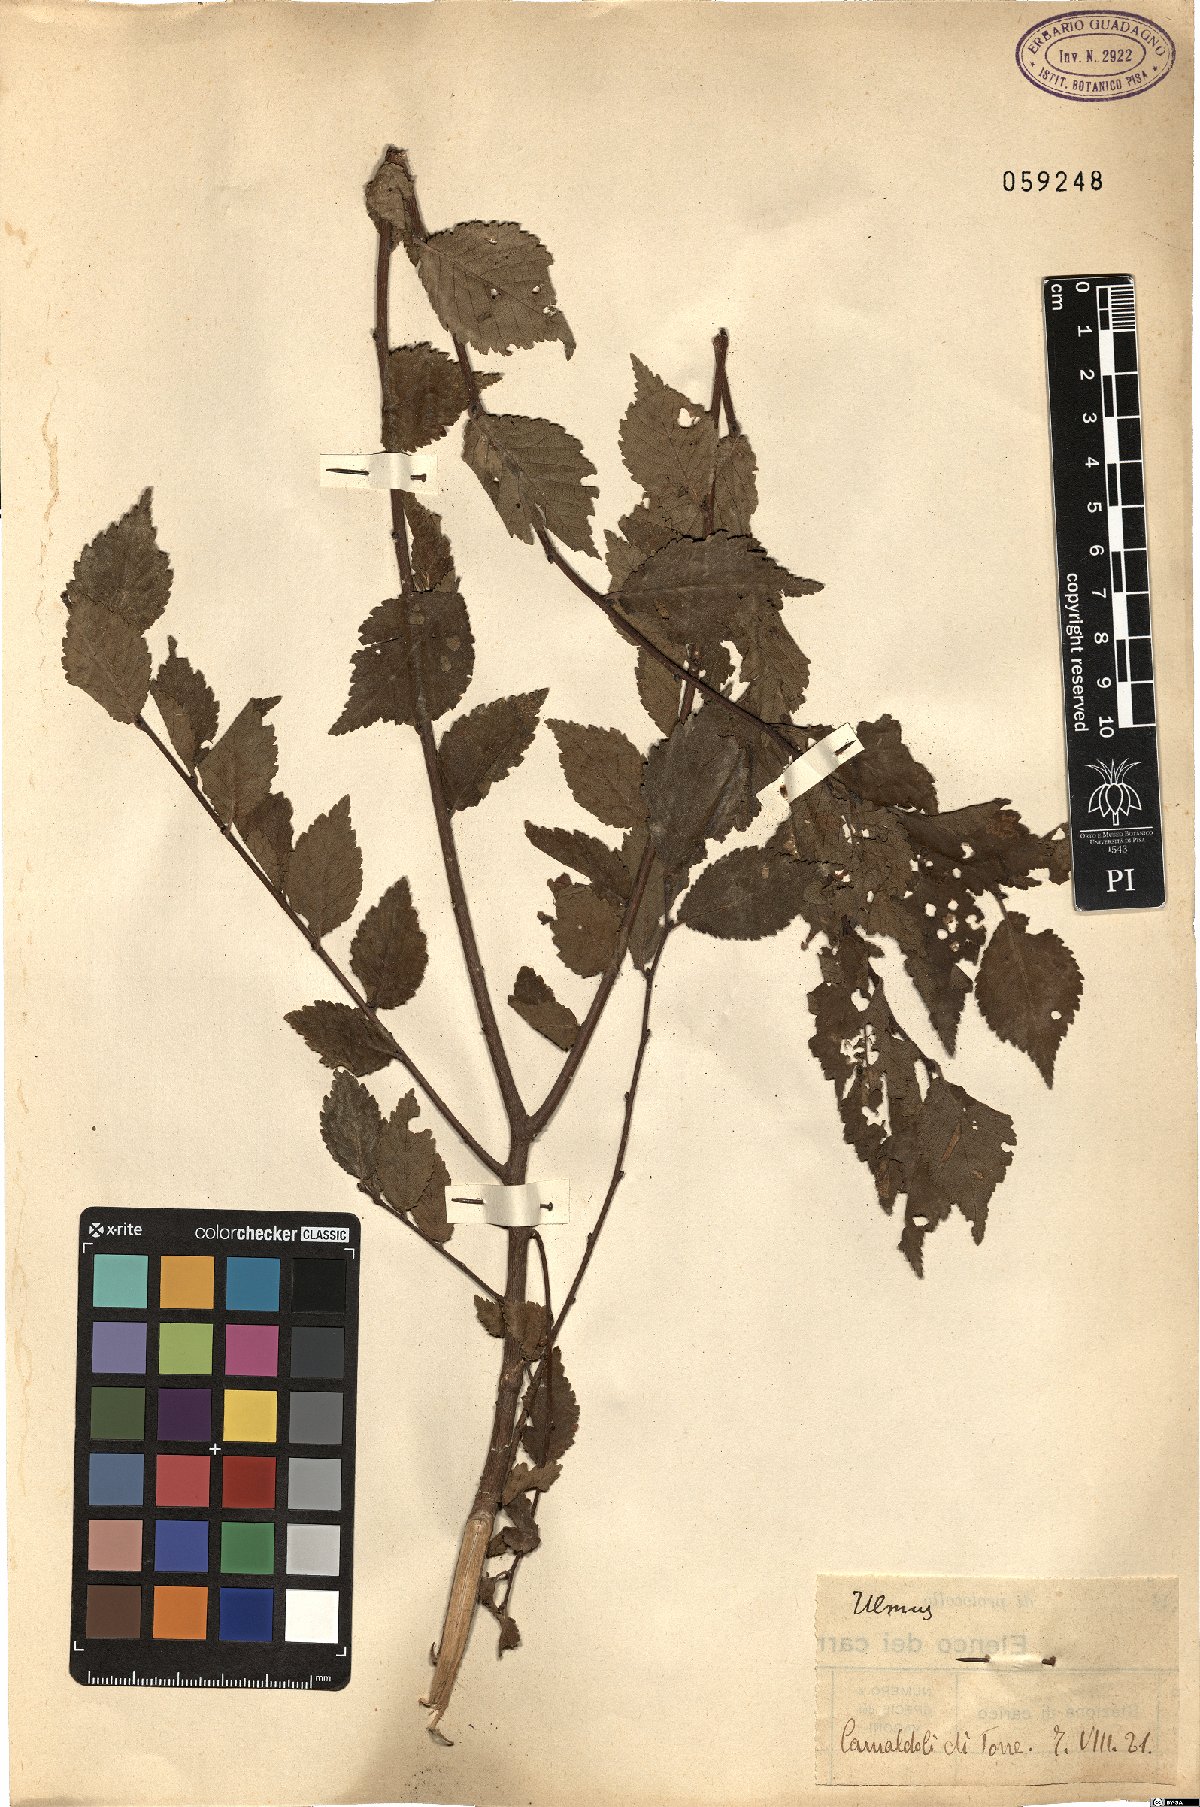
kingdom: Plantae
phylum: Tracheophyta
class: Magnoliopsida
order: Rosales
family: Ulmaceae
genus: Ulmus
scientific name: Ulmus
